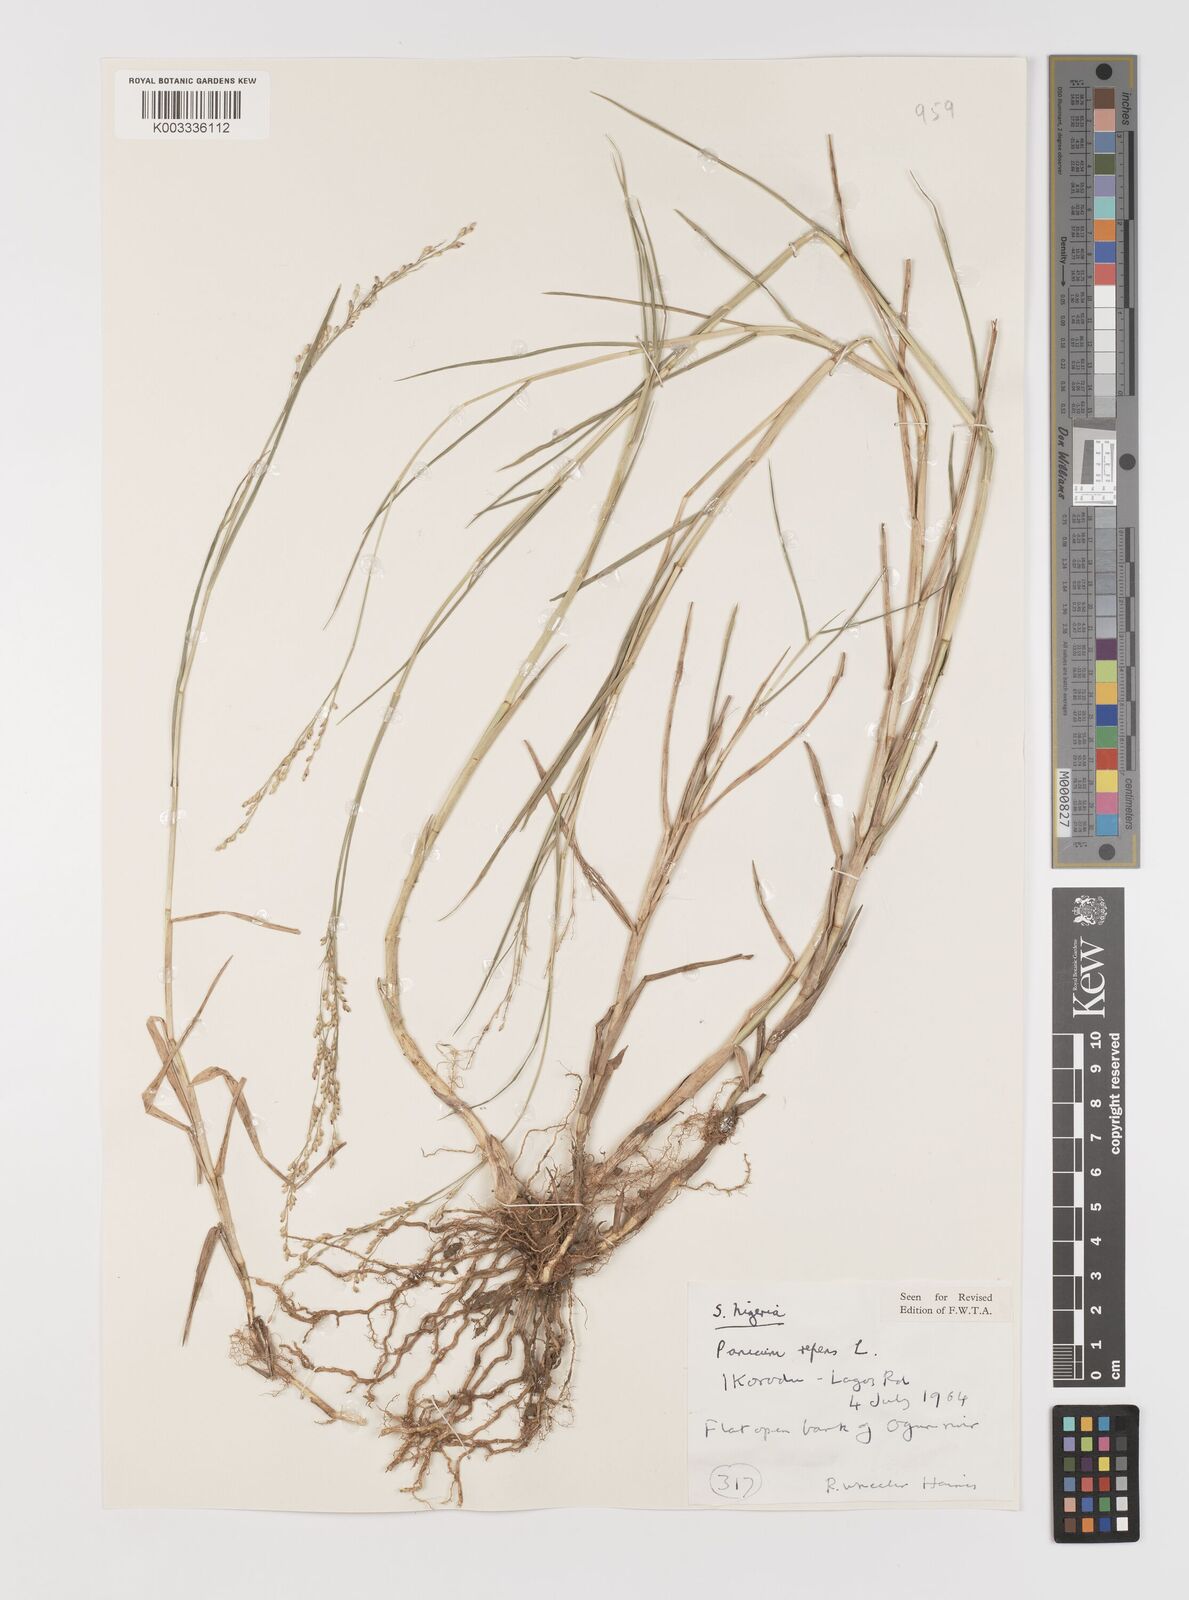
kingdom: Plantae
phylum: Tracheophyta
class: Liliopsida
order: Poales
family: Poaceae
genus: Panicum
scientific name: Panicum repens
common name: Torpedo grass
